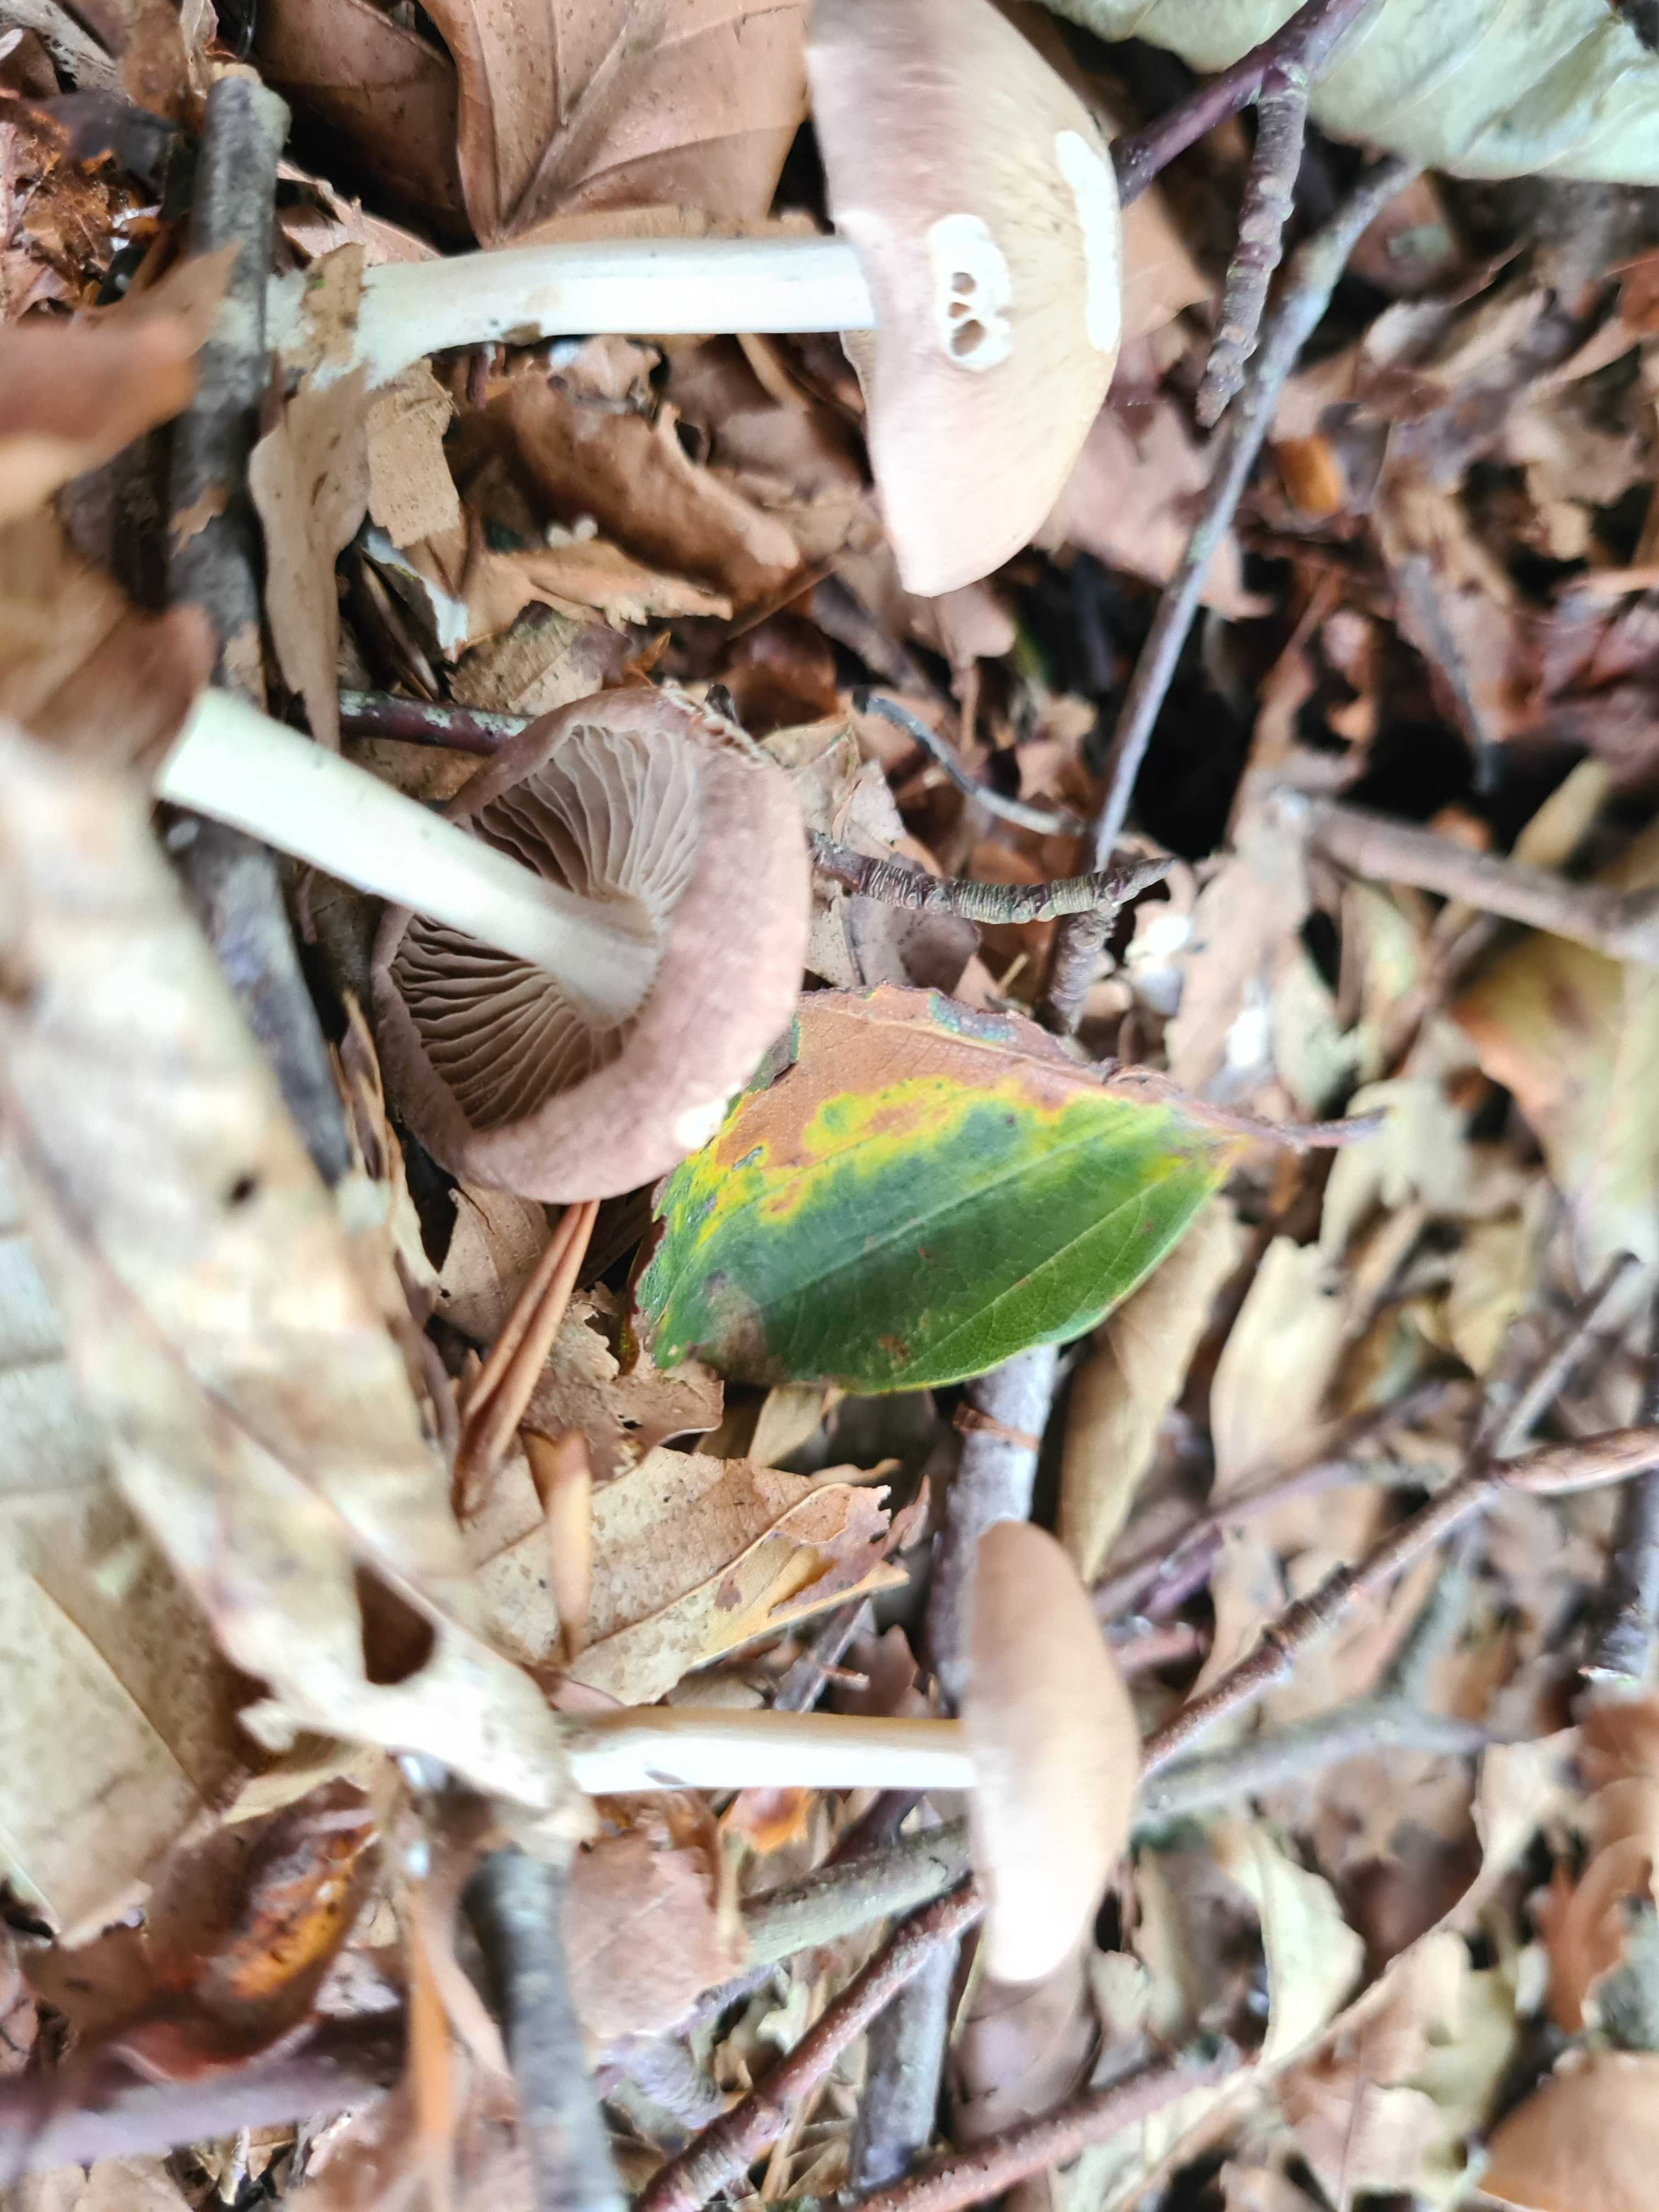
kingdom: Fungi
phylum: Basidiomycota
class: Agaricomycetes
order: Agaricales
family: Omphalotaceae
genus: Collybiopsis
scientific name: Collybiopsis peronata
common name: bestøvlet fladhat
